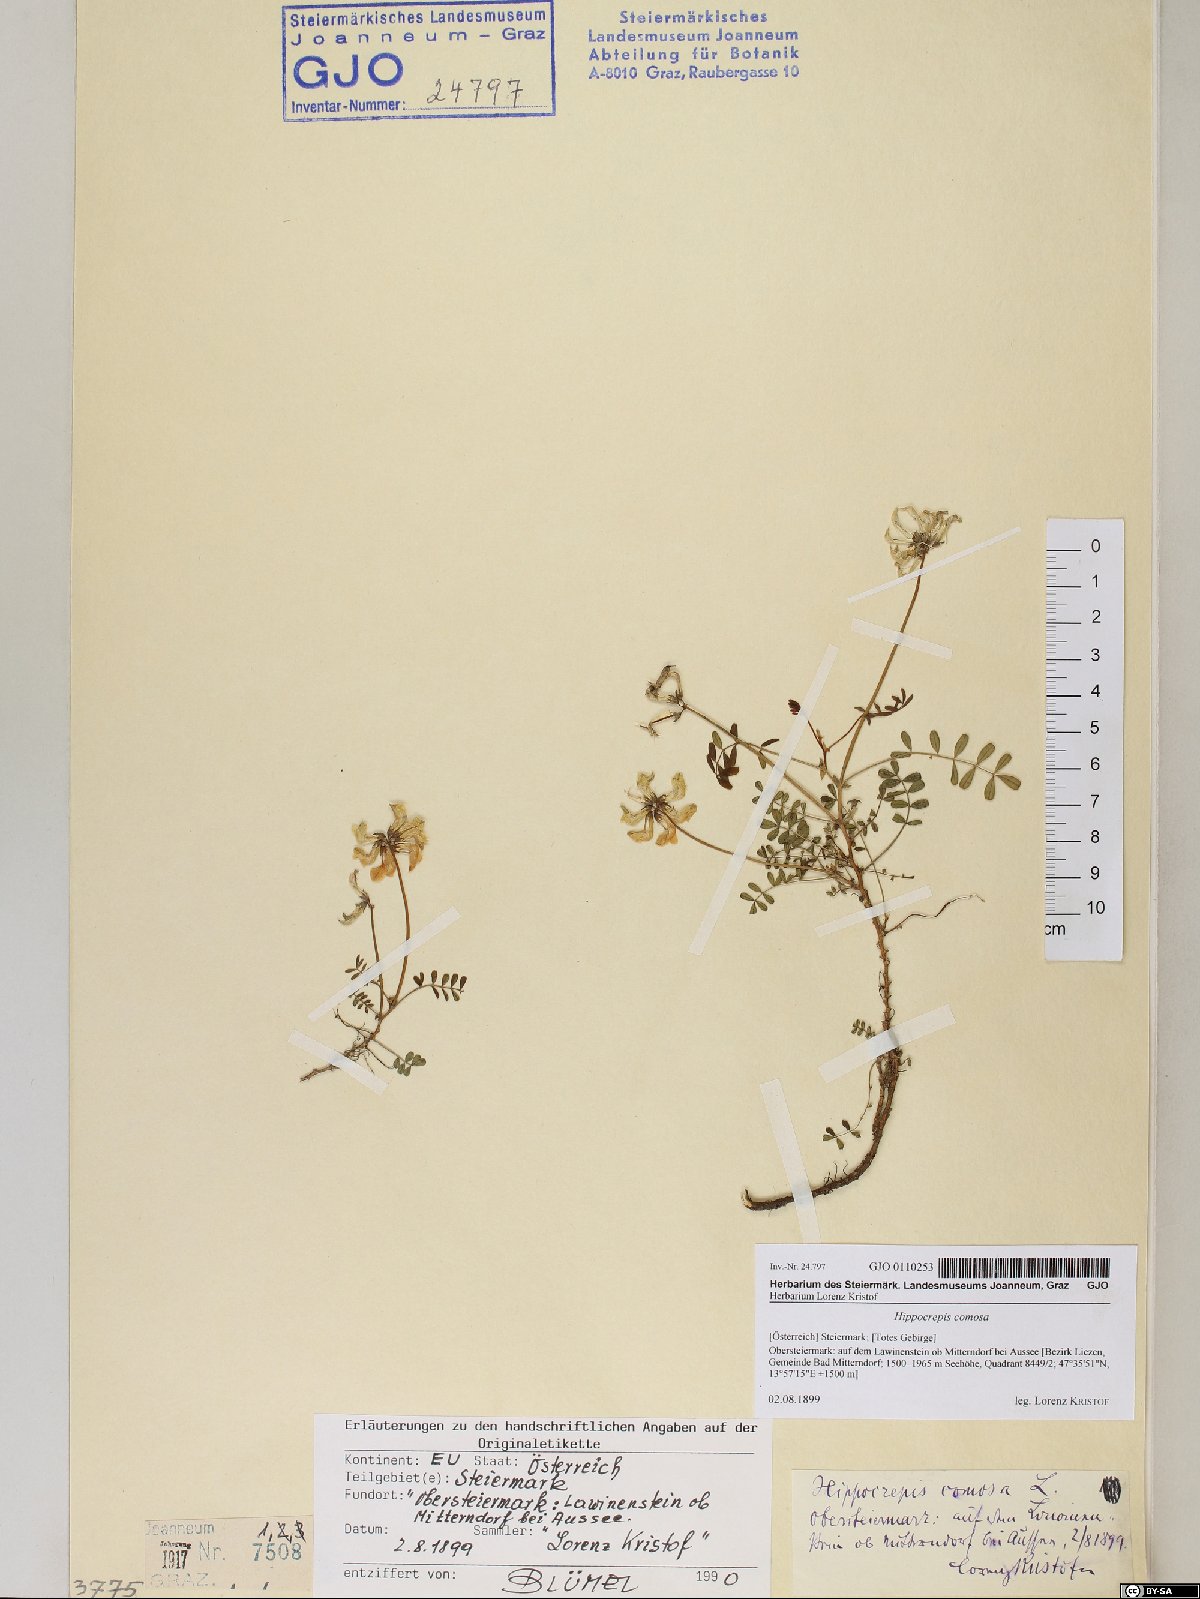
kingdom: Plantae
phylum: Tracheophyta
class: Magnoliopsida
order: Fabales
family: Fabaceae
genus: Hippocrepis
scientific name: Hippocrepis comosa
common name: Horseshoe vetch
